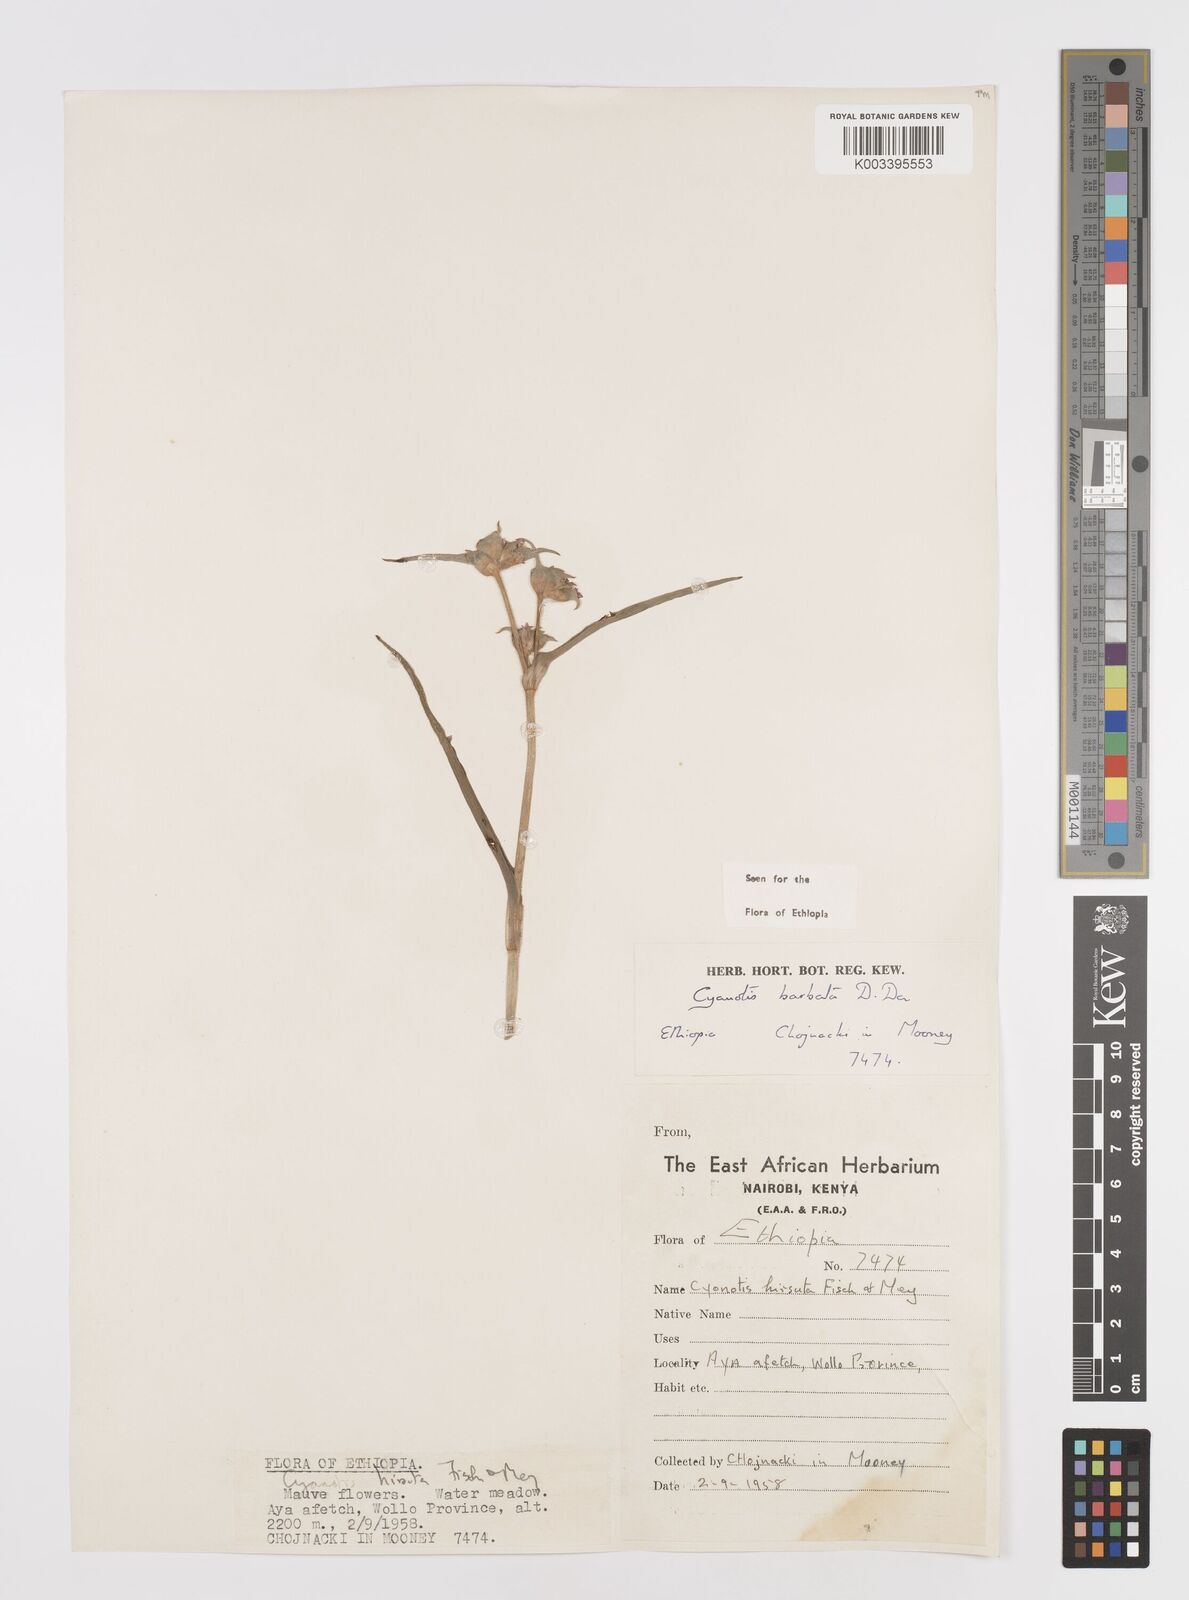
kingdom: Plantae
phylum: Tracheophyta
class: Liliopsida
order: Commelinales
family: Commelinaceae
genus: Cyanotis
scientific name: Cyanotis vaga
